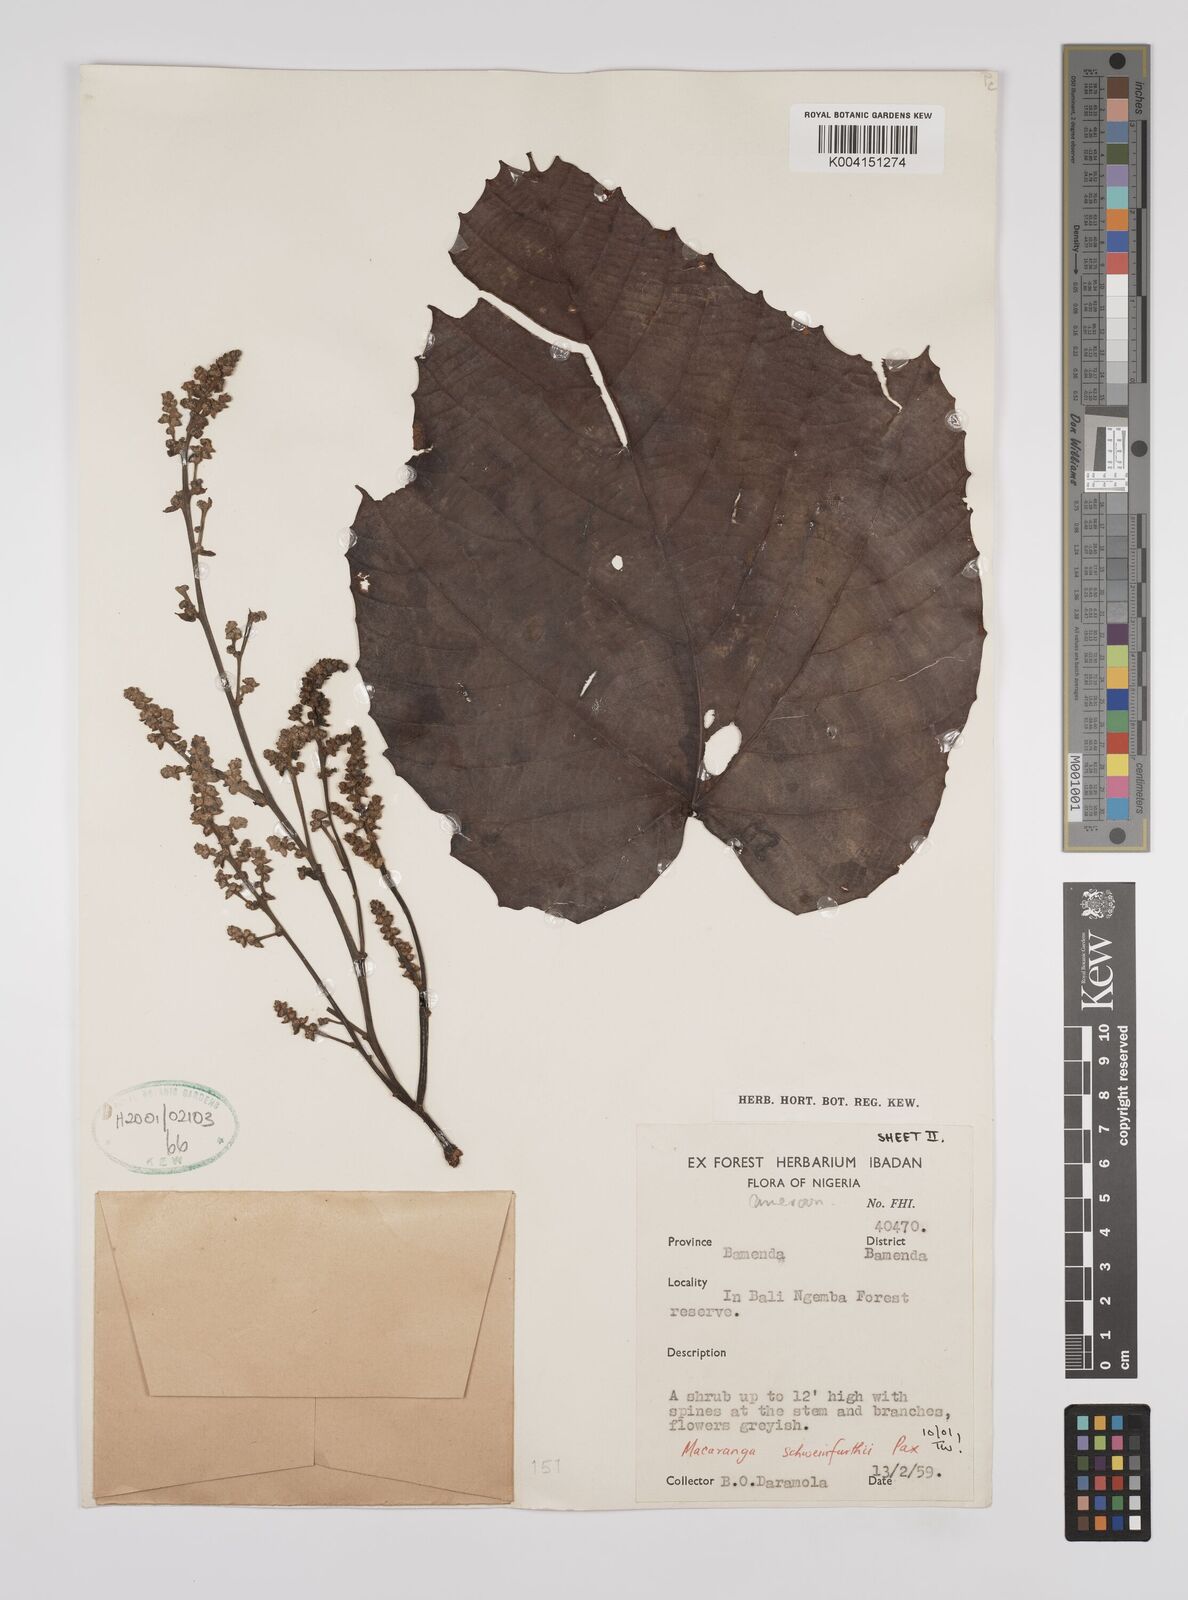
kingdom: Plantae
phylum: Tracheophyta
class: Magnoliopsida
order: Malpighiales
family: Euphorbiaceae
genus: Macaranga
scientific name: Macaranga schweinfurthii
